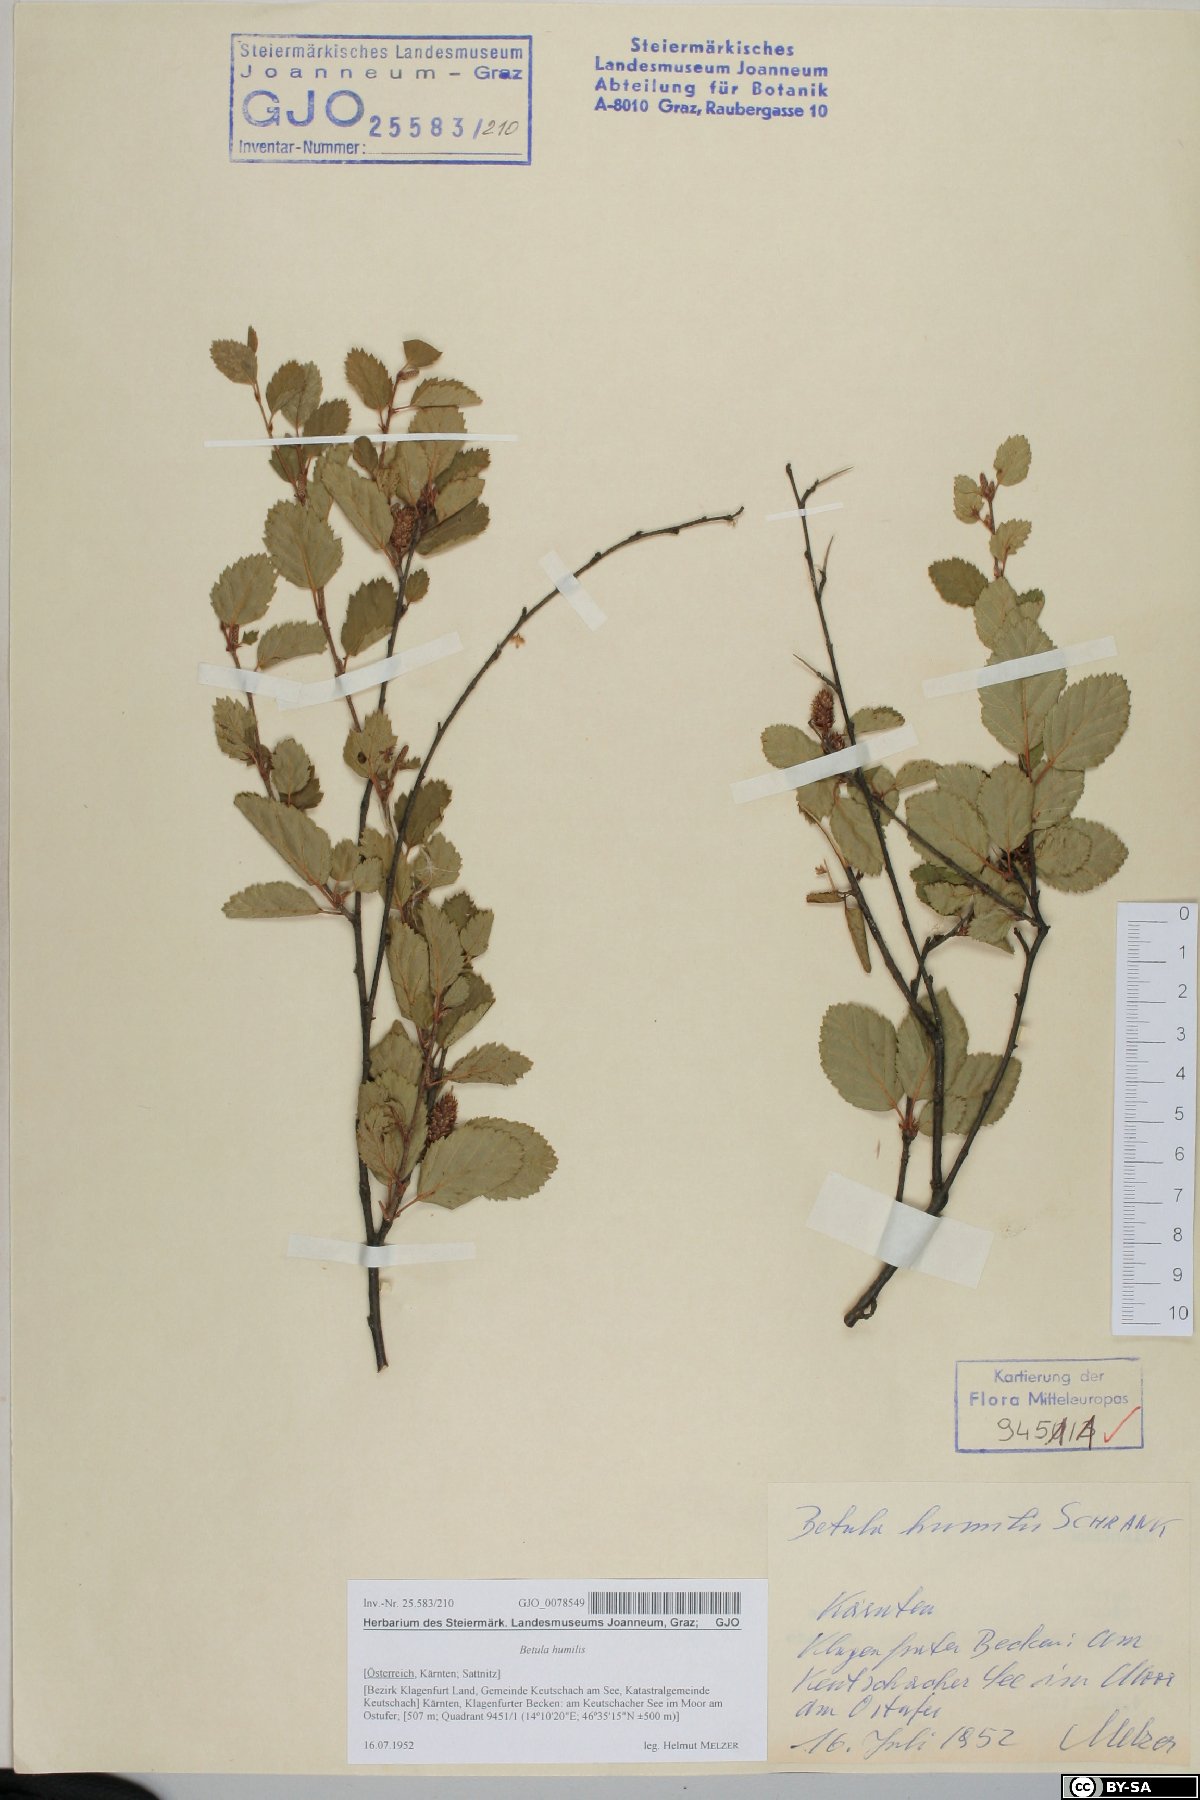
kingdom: Plantae
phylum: Tracheophyta
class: Magnoliopsida
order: Fagales
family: Betulaceae
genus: Betula
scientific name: Betula humilis
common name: Shrubby birch
